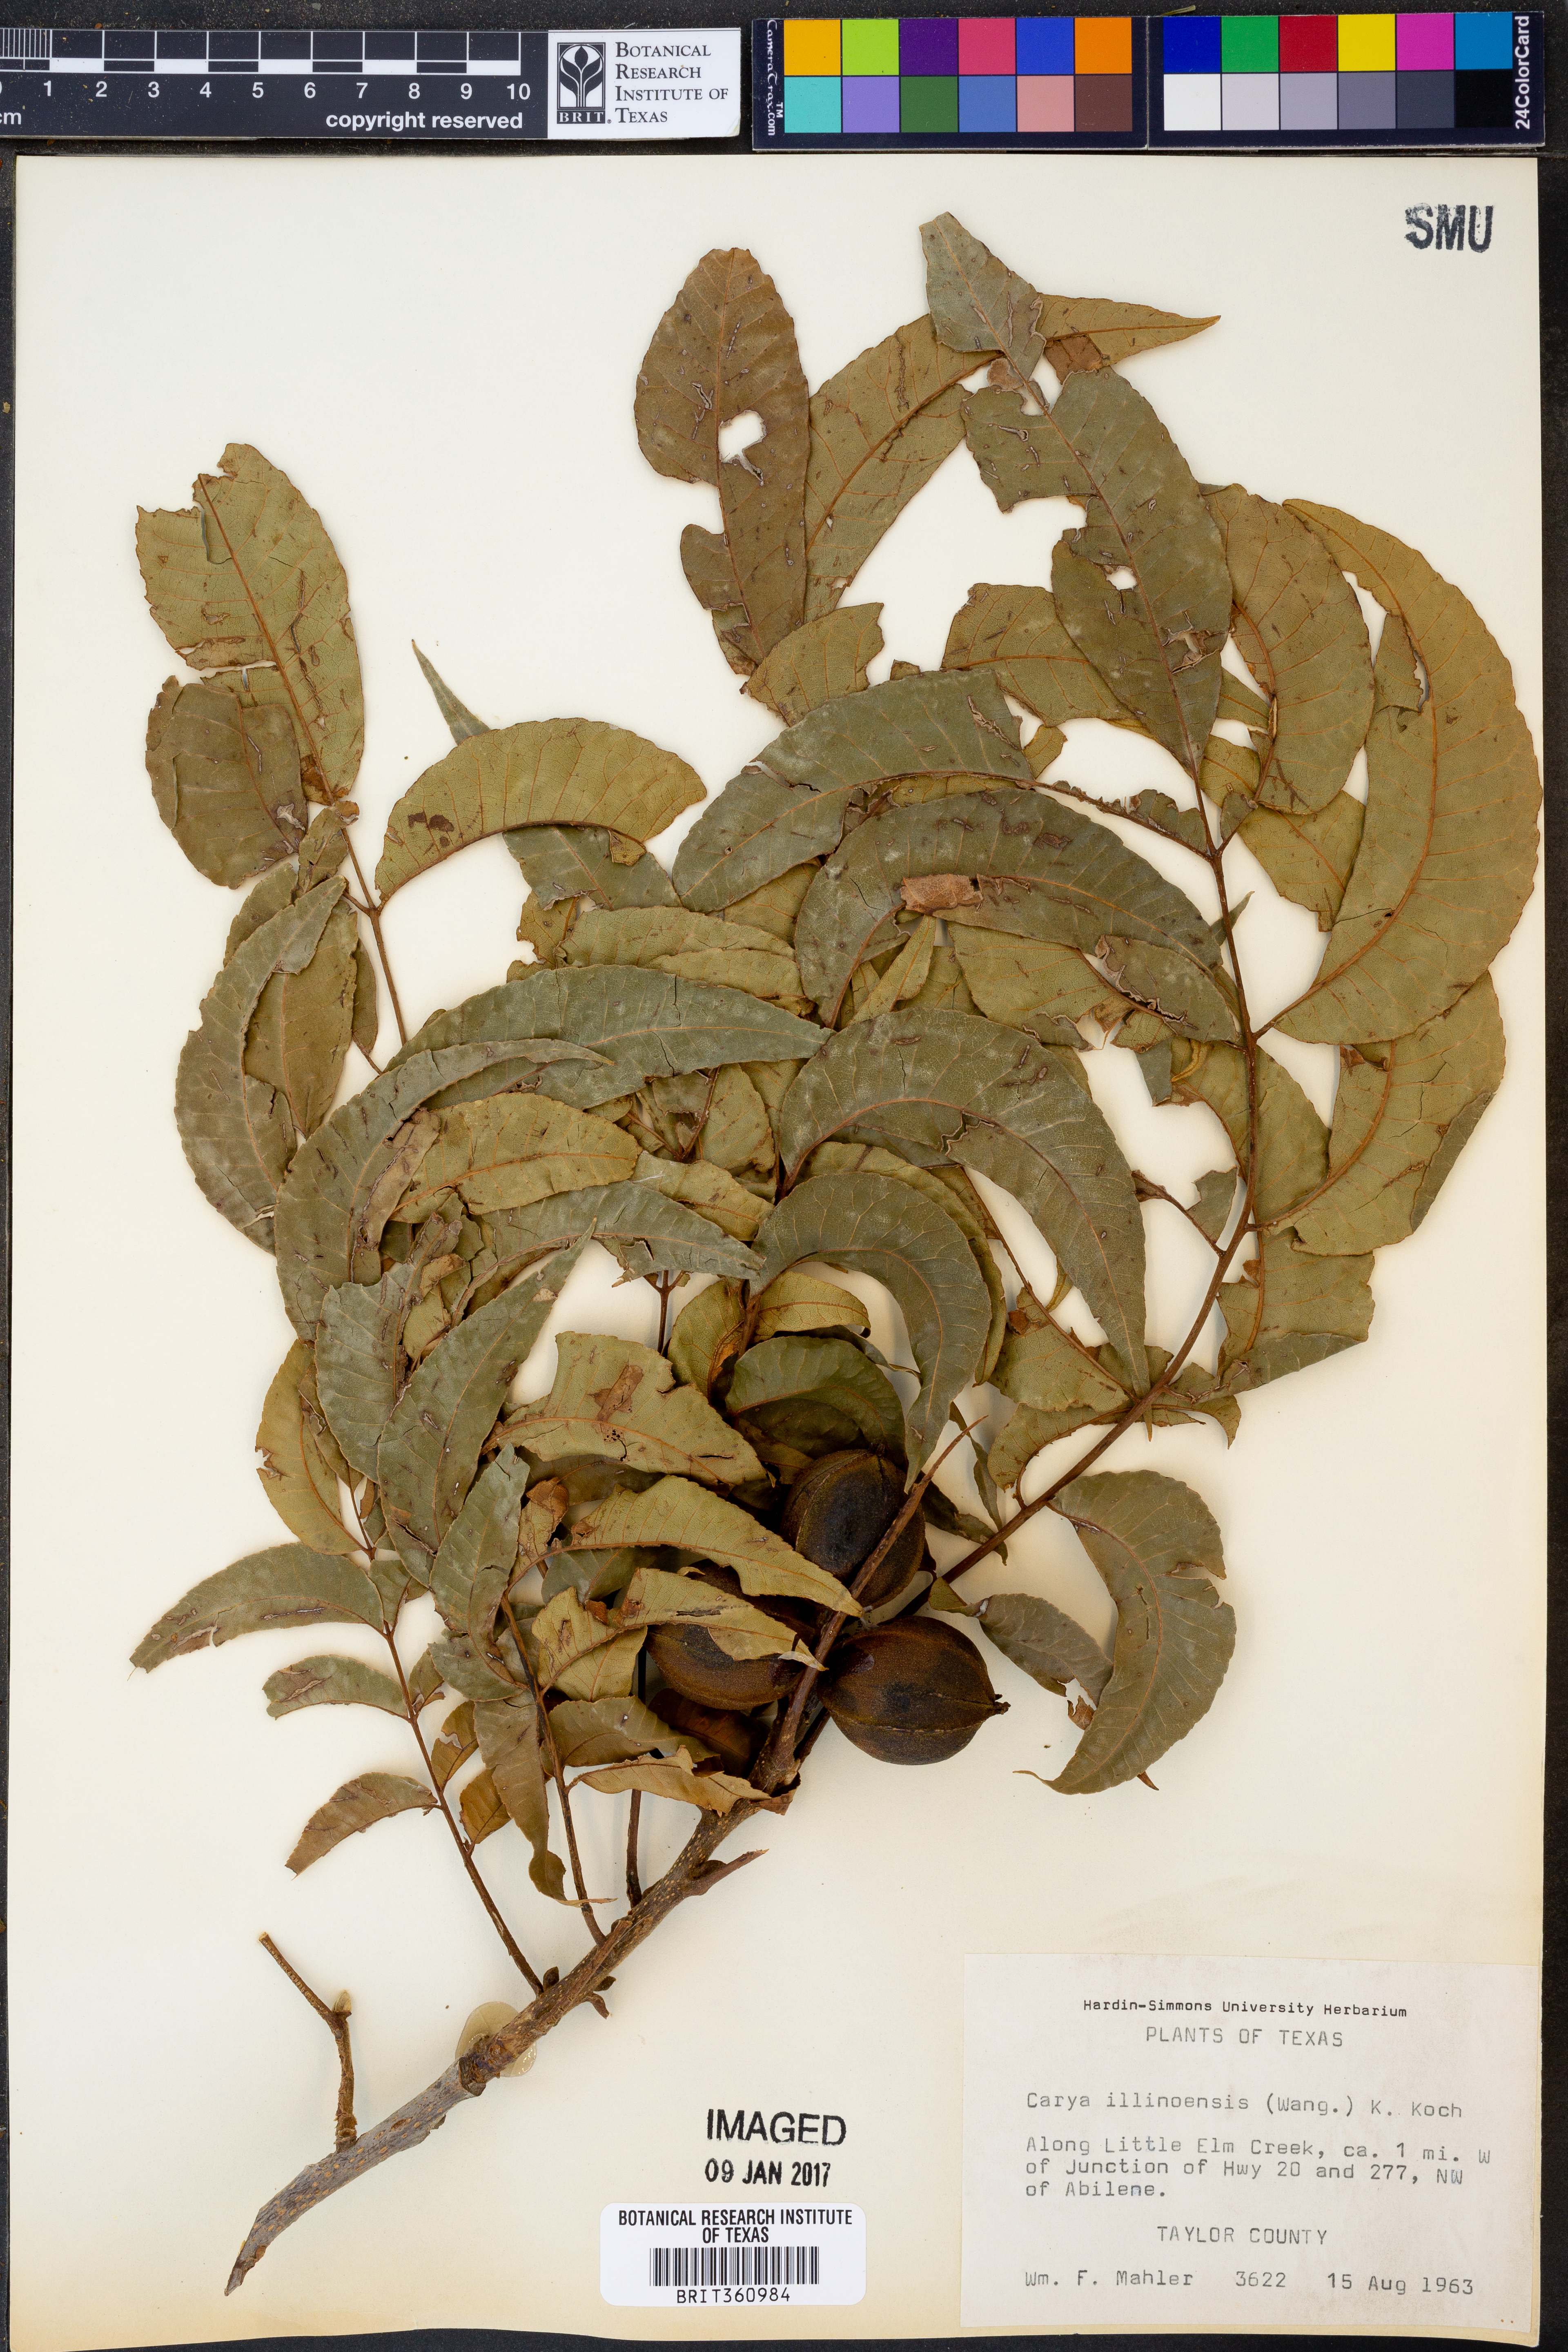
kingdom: Plantae
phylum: Tracheophyta
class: Magnoliopsida
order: Fagales
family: Juglandaceae
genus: Carya
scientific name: Carya illinoinensis
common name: Pecan
